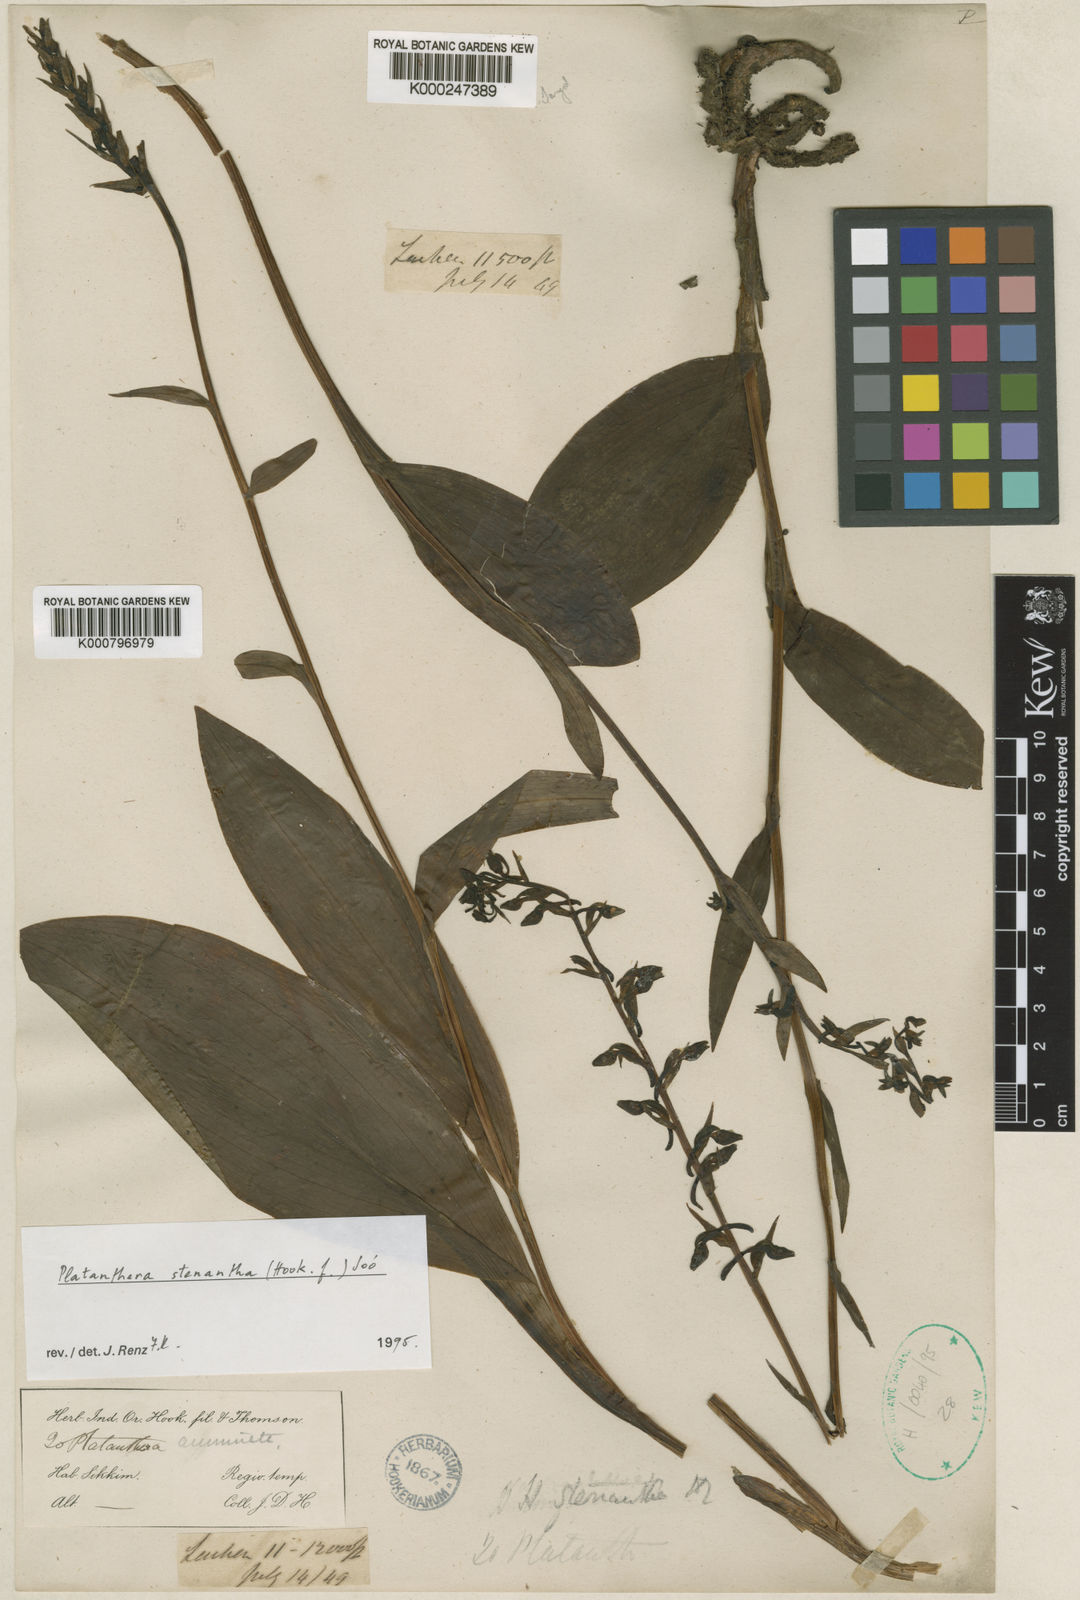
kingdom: Plantae
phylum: Tracheophyta
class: Liliopsida
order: Asparagales
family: Orchidaceae
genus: Platanthera
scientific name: Platanthera
